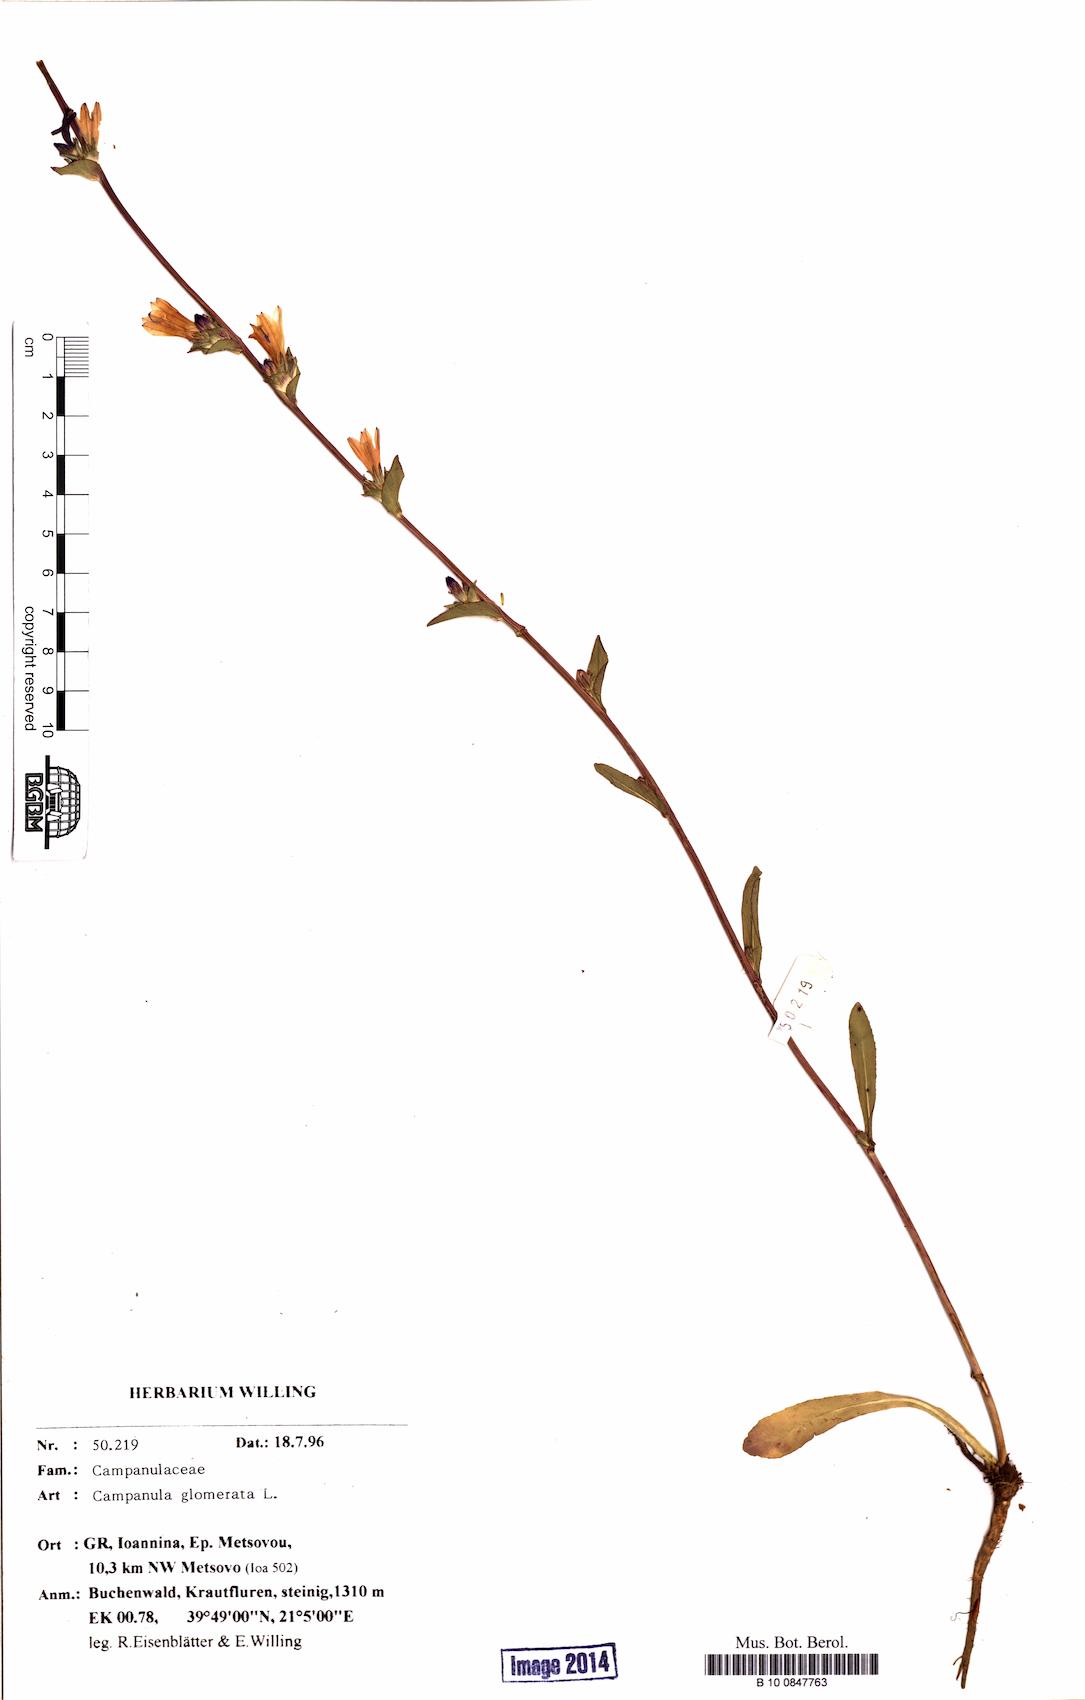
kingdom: Plantae
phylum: Tracheophyta
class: Magnoliopsida
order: Asterales
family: Campanulaceae
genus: Campanula
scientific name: Campanula glomerata
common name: Clustered bellflower
